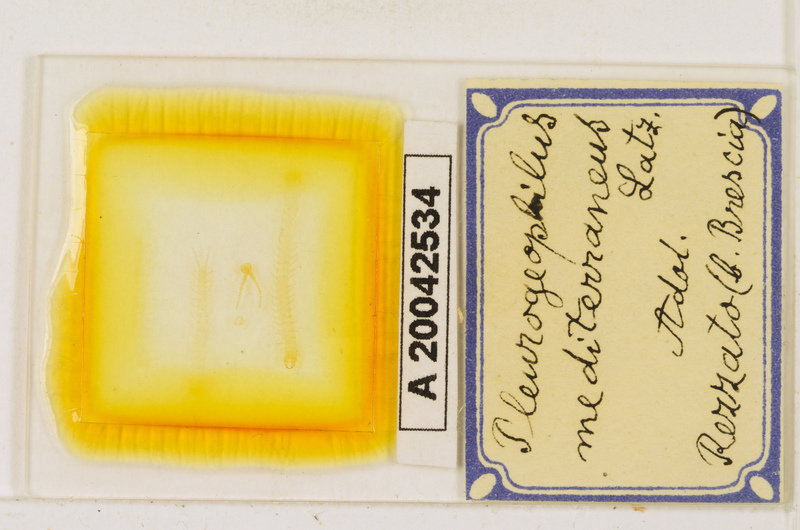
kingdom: Animalia
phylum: Arthropoda
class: Chilopoda
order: Geophilomorpha
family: Geophilidae
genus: Pleurogeophilus
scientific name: Pleurogeophilus mediterraneus
